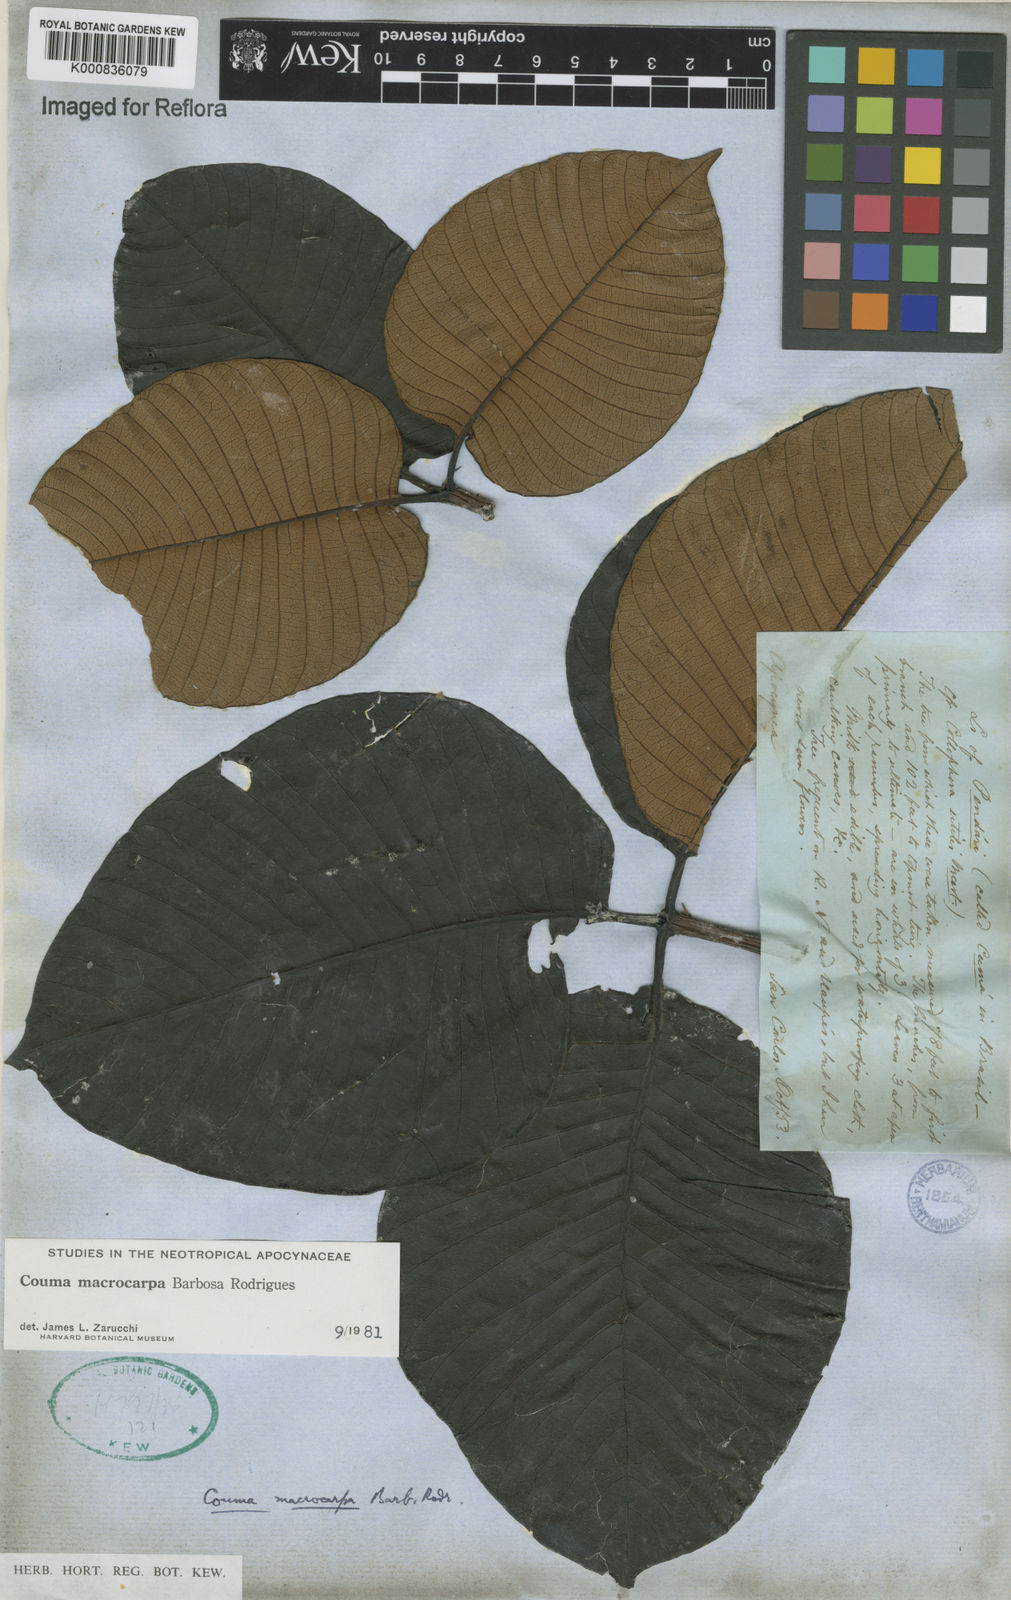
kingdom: Plantae
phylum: Tracheophyta
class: Magnoliopsida
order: Gentianales
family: Apocynaceae
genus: Couma
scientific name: Couma macrocarpa
